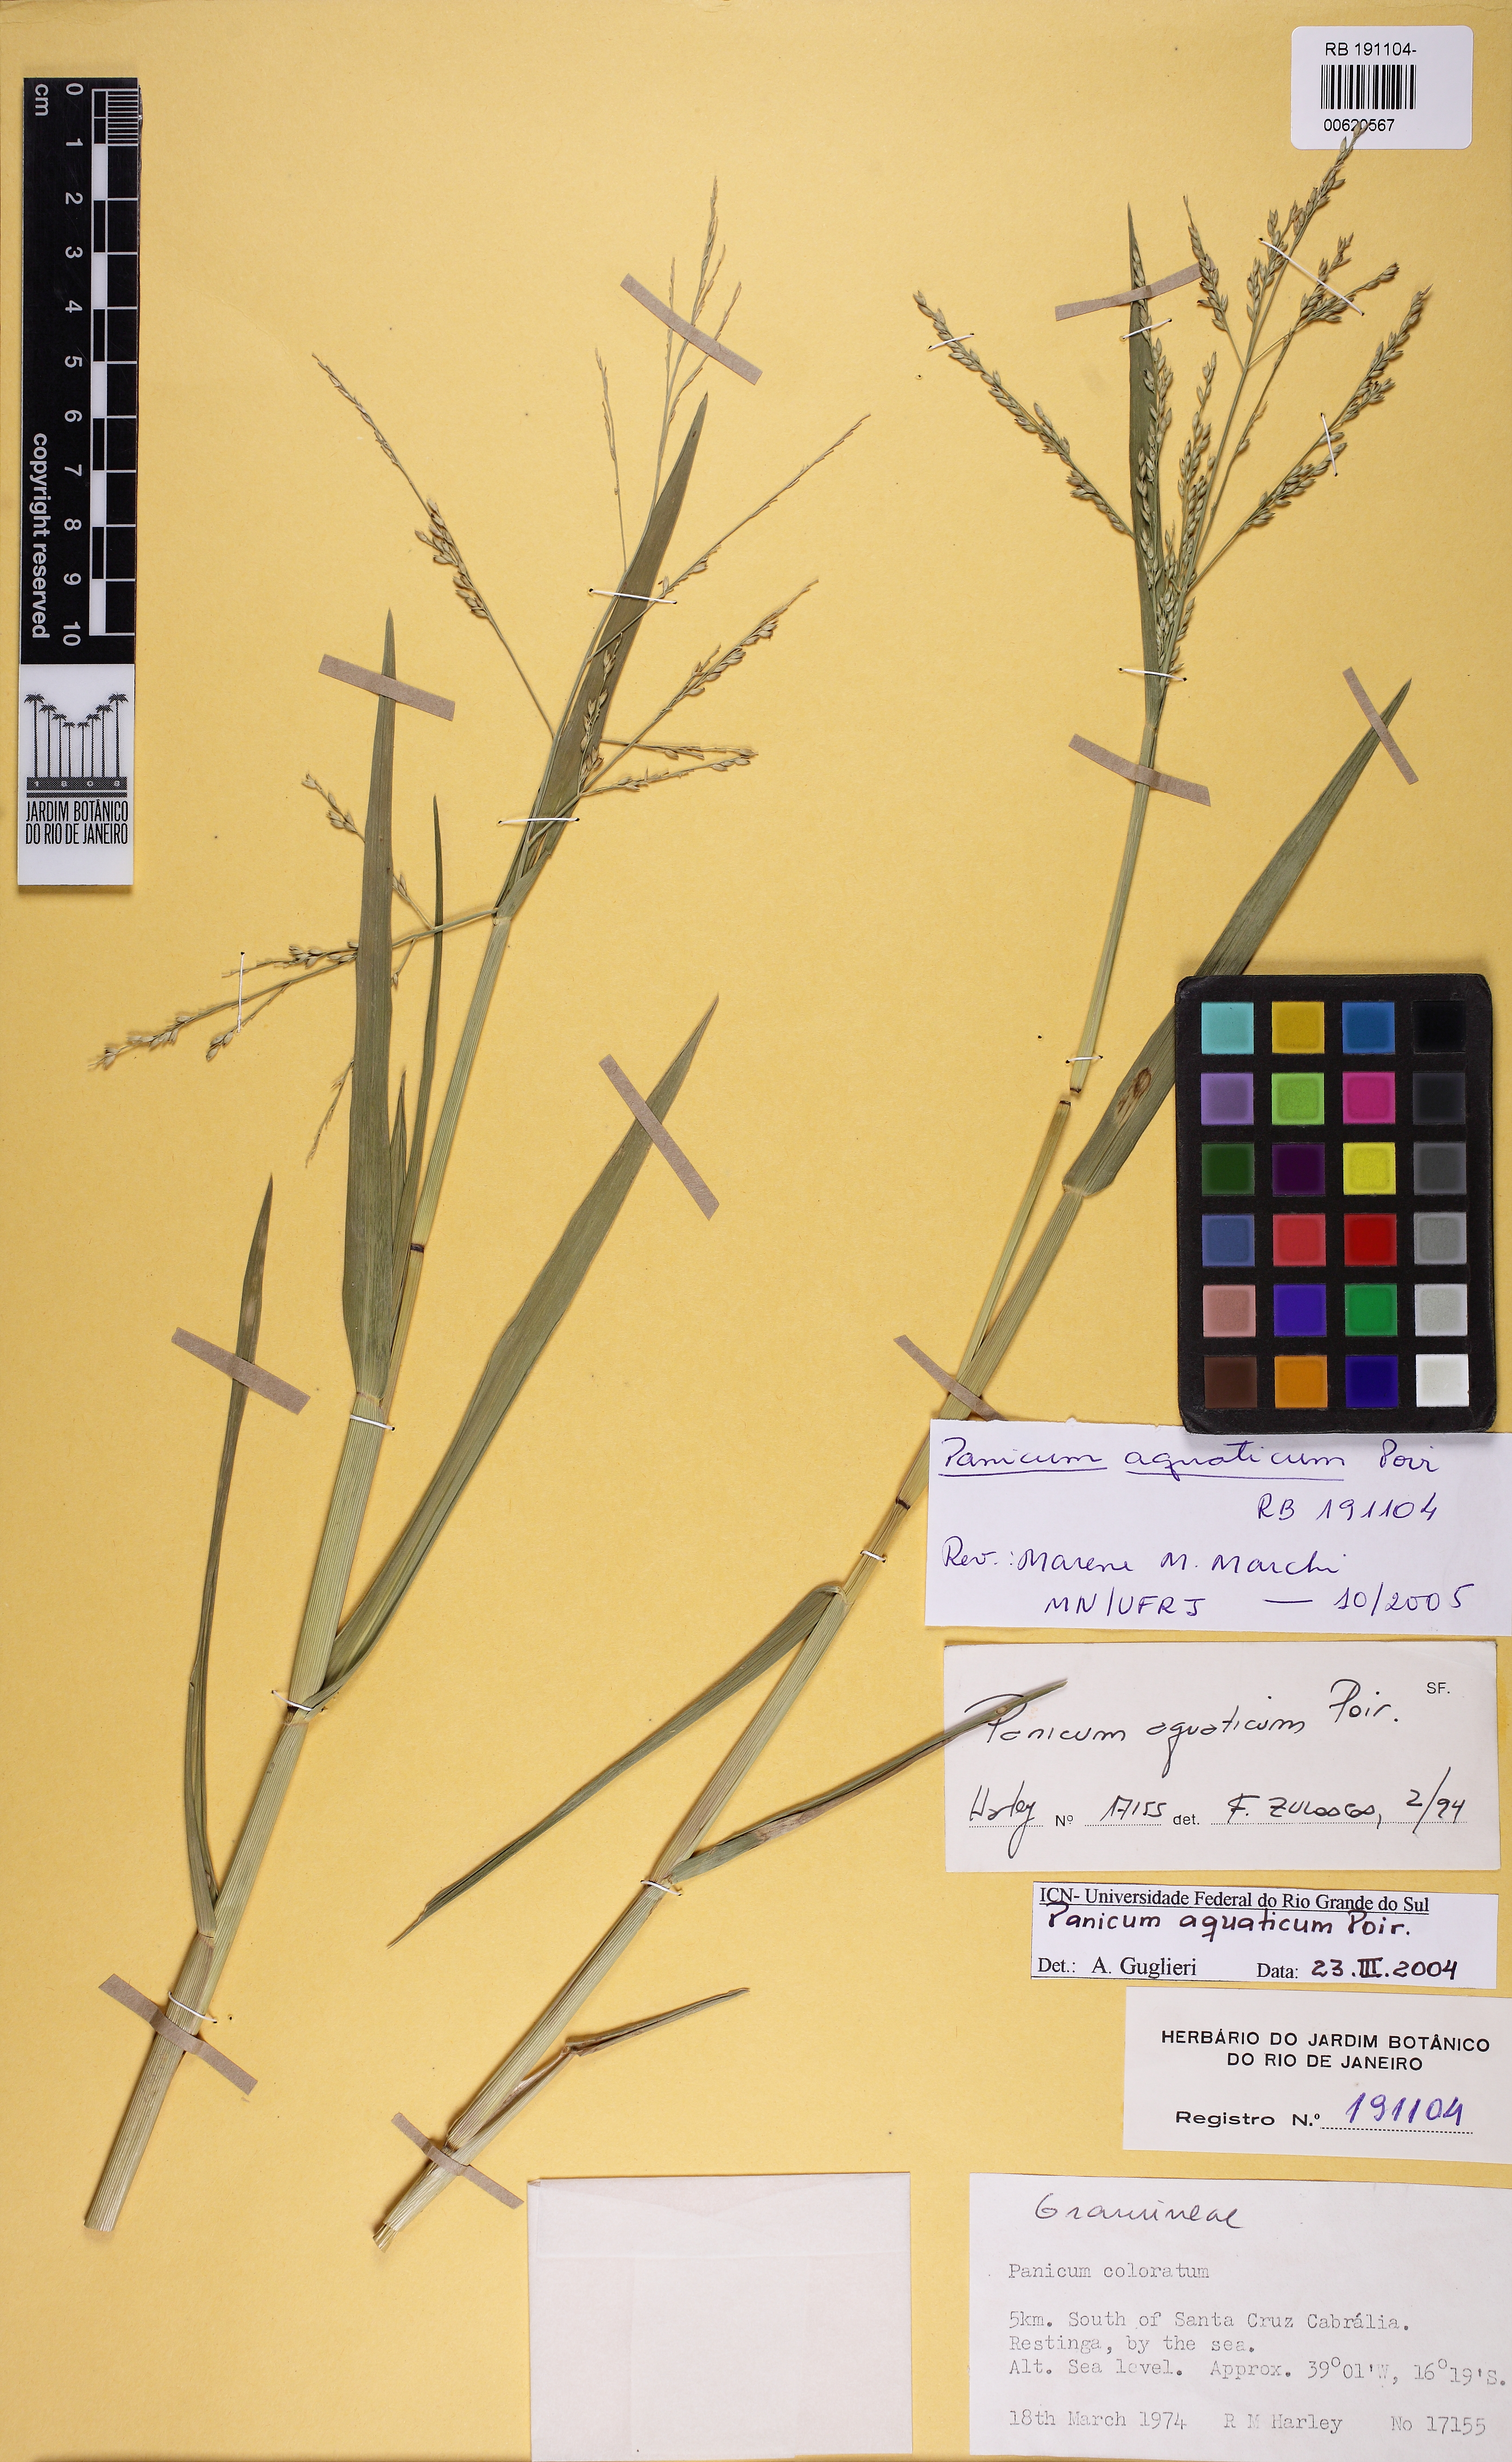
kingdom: Plantae
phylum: Tracheophyta
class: Liliopsida
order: Poales
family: Poaceae
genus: Panicum
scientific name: Panicum aquaticum
